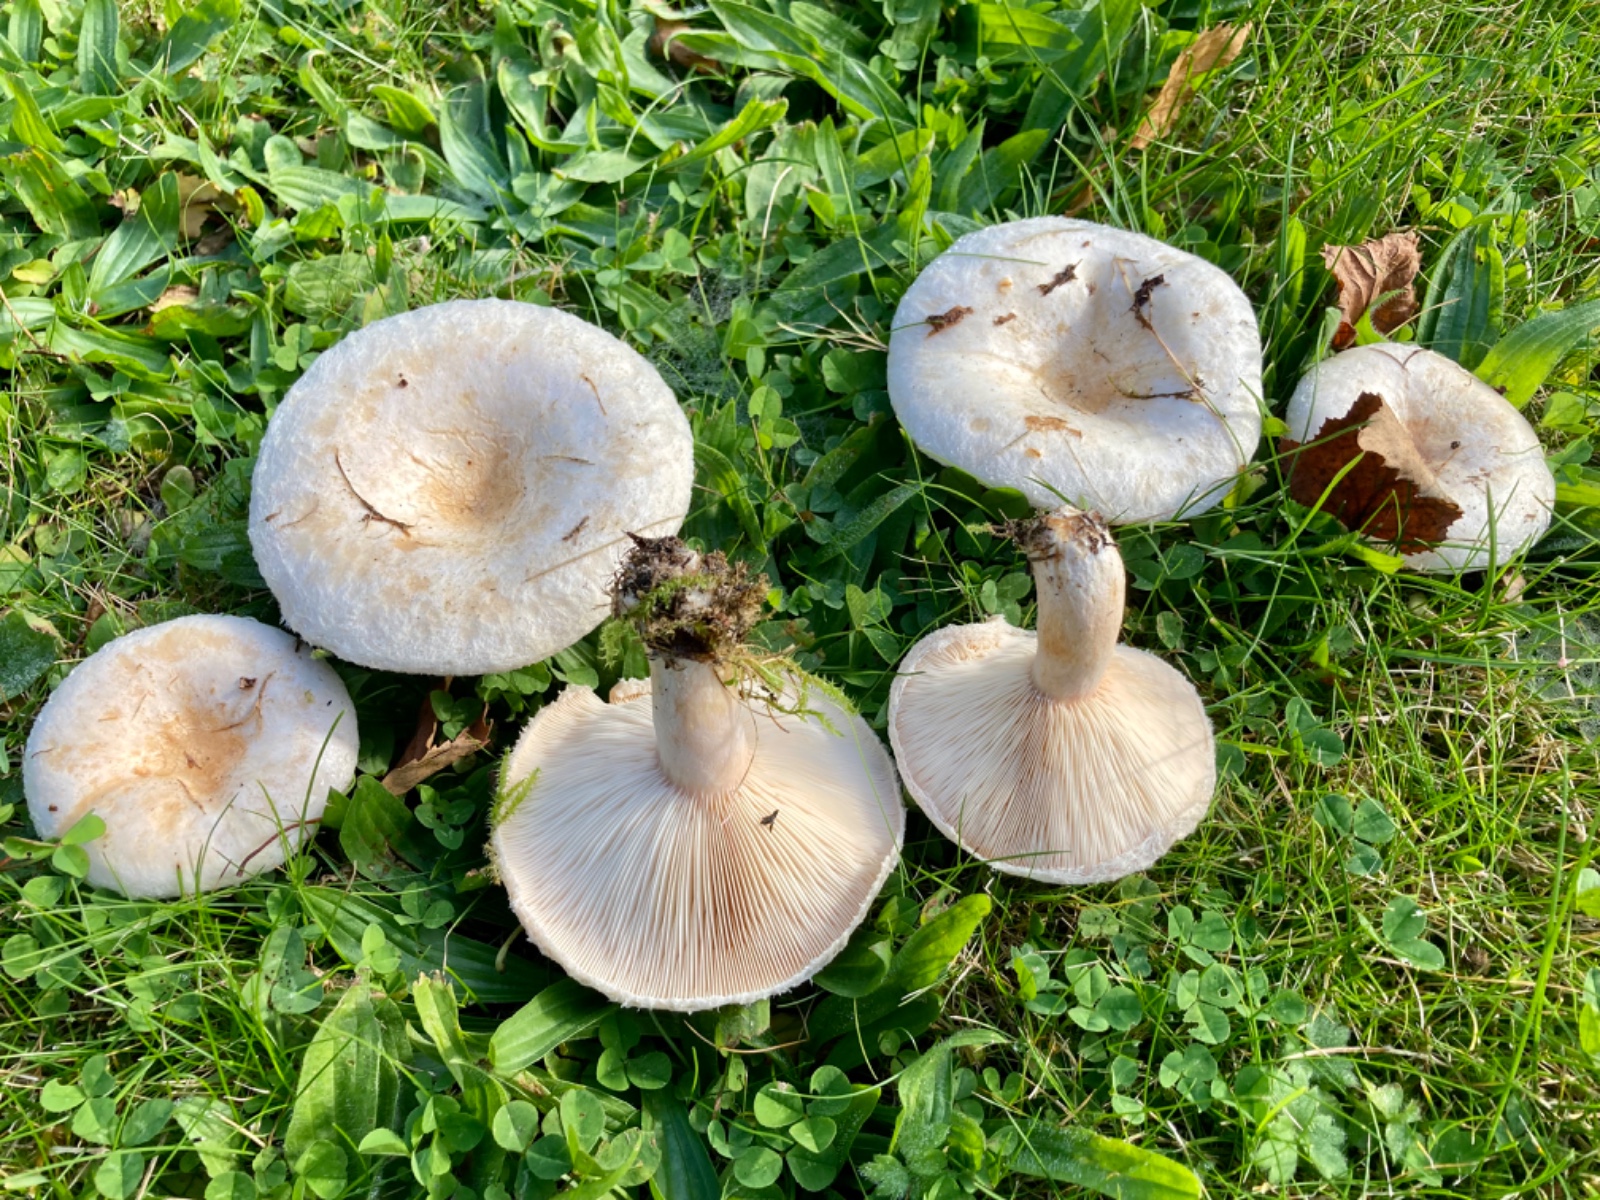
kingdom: Fungi
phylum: Basidiomycota
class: Agaricomycetes
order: Russulales
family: Russulaceae
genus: Lactarius
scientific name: Lactarius pubescens
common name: dunet mælkehat
